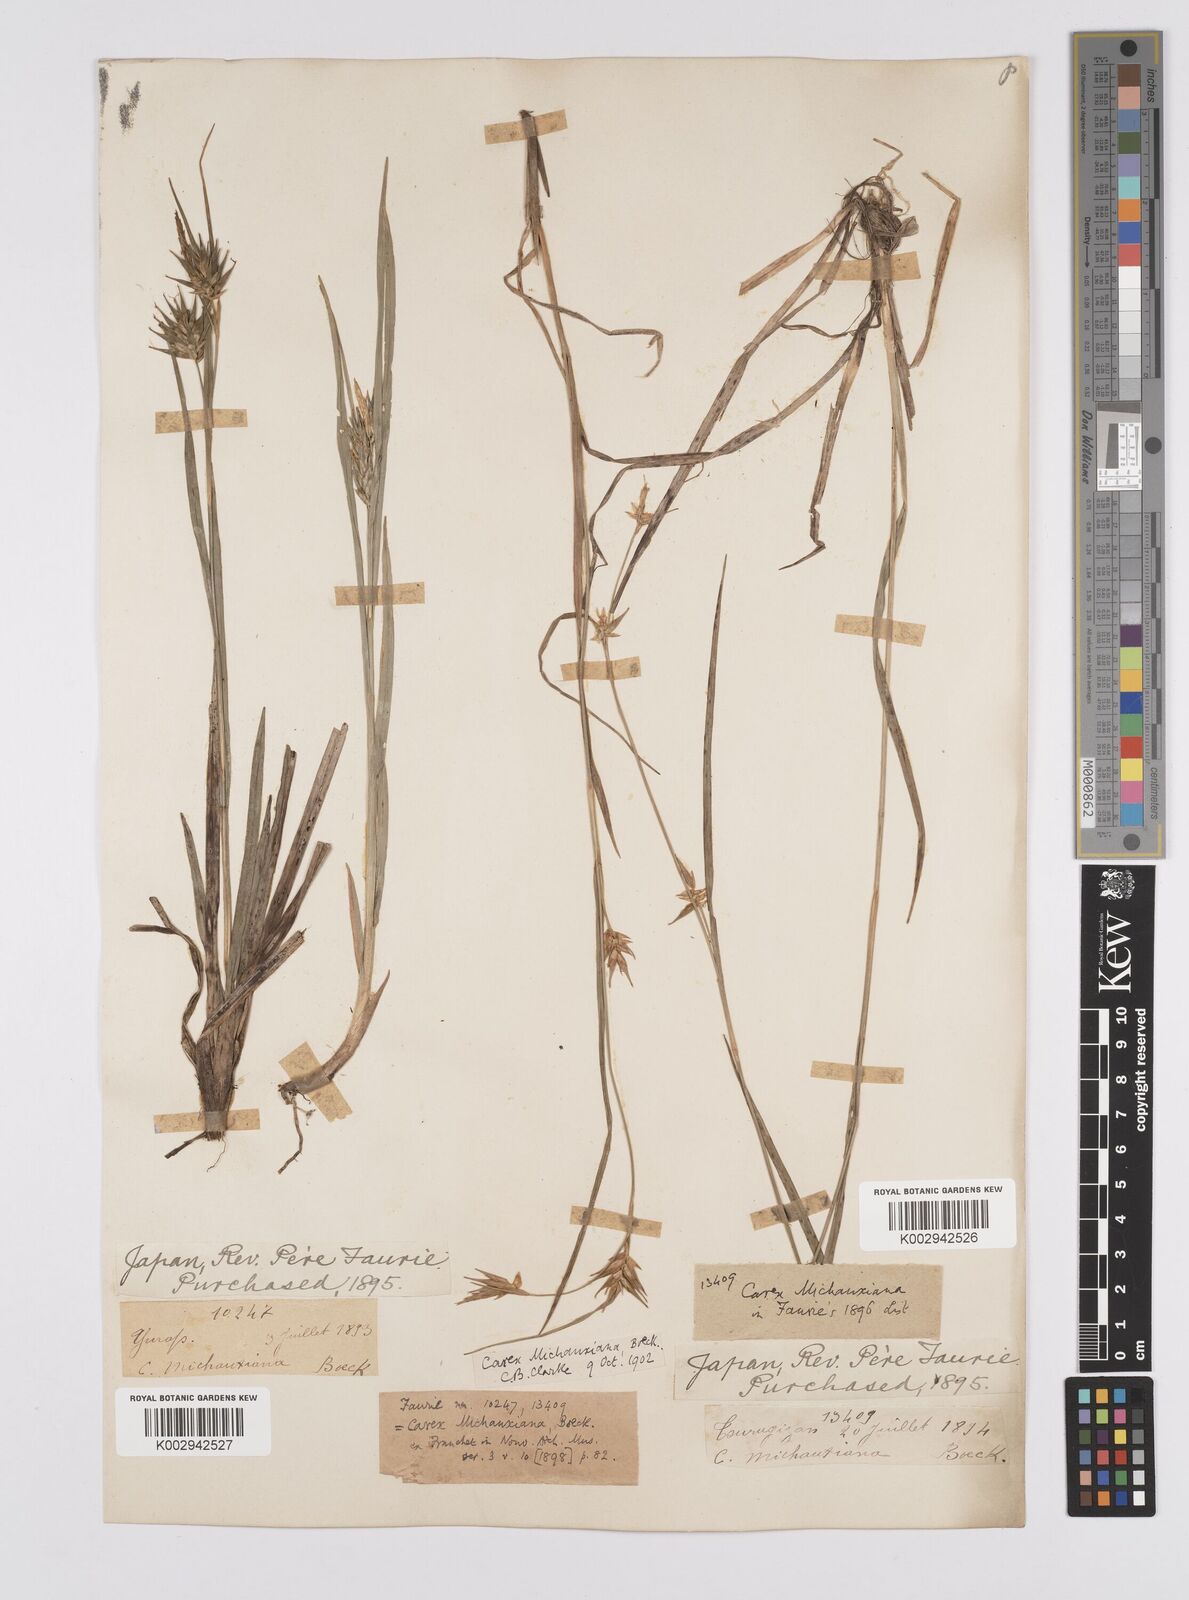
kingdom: Plantae
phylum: Tracheophyta
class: Liliopsida
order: Poales
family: Cyperaceae
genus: Carex
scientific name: Carex michauxiana
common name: Michaux's sedge
